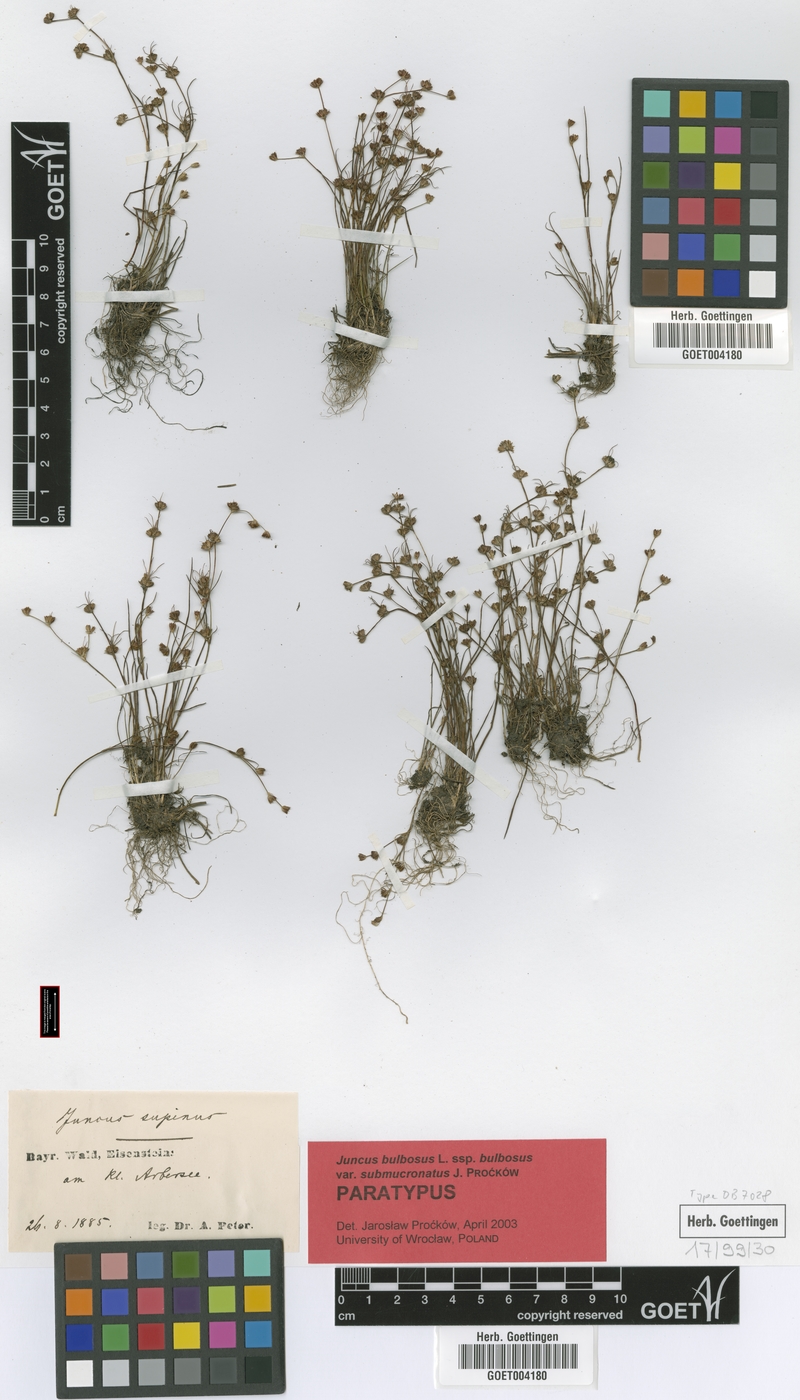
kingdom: Plantae
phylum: Tracheophyta
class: Liliopsida
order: Poales
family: Juncaceae
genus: Juncus
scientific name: Juncus bulbosus
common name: Bulbous rush
